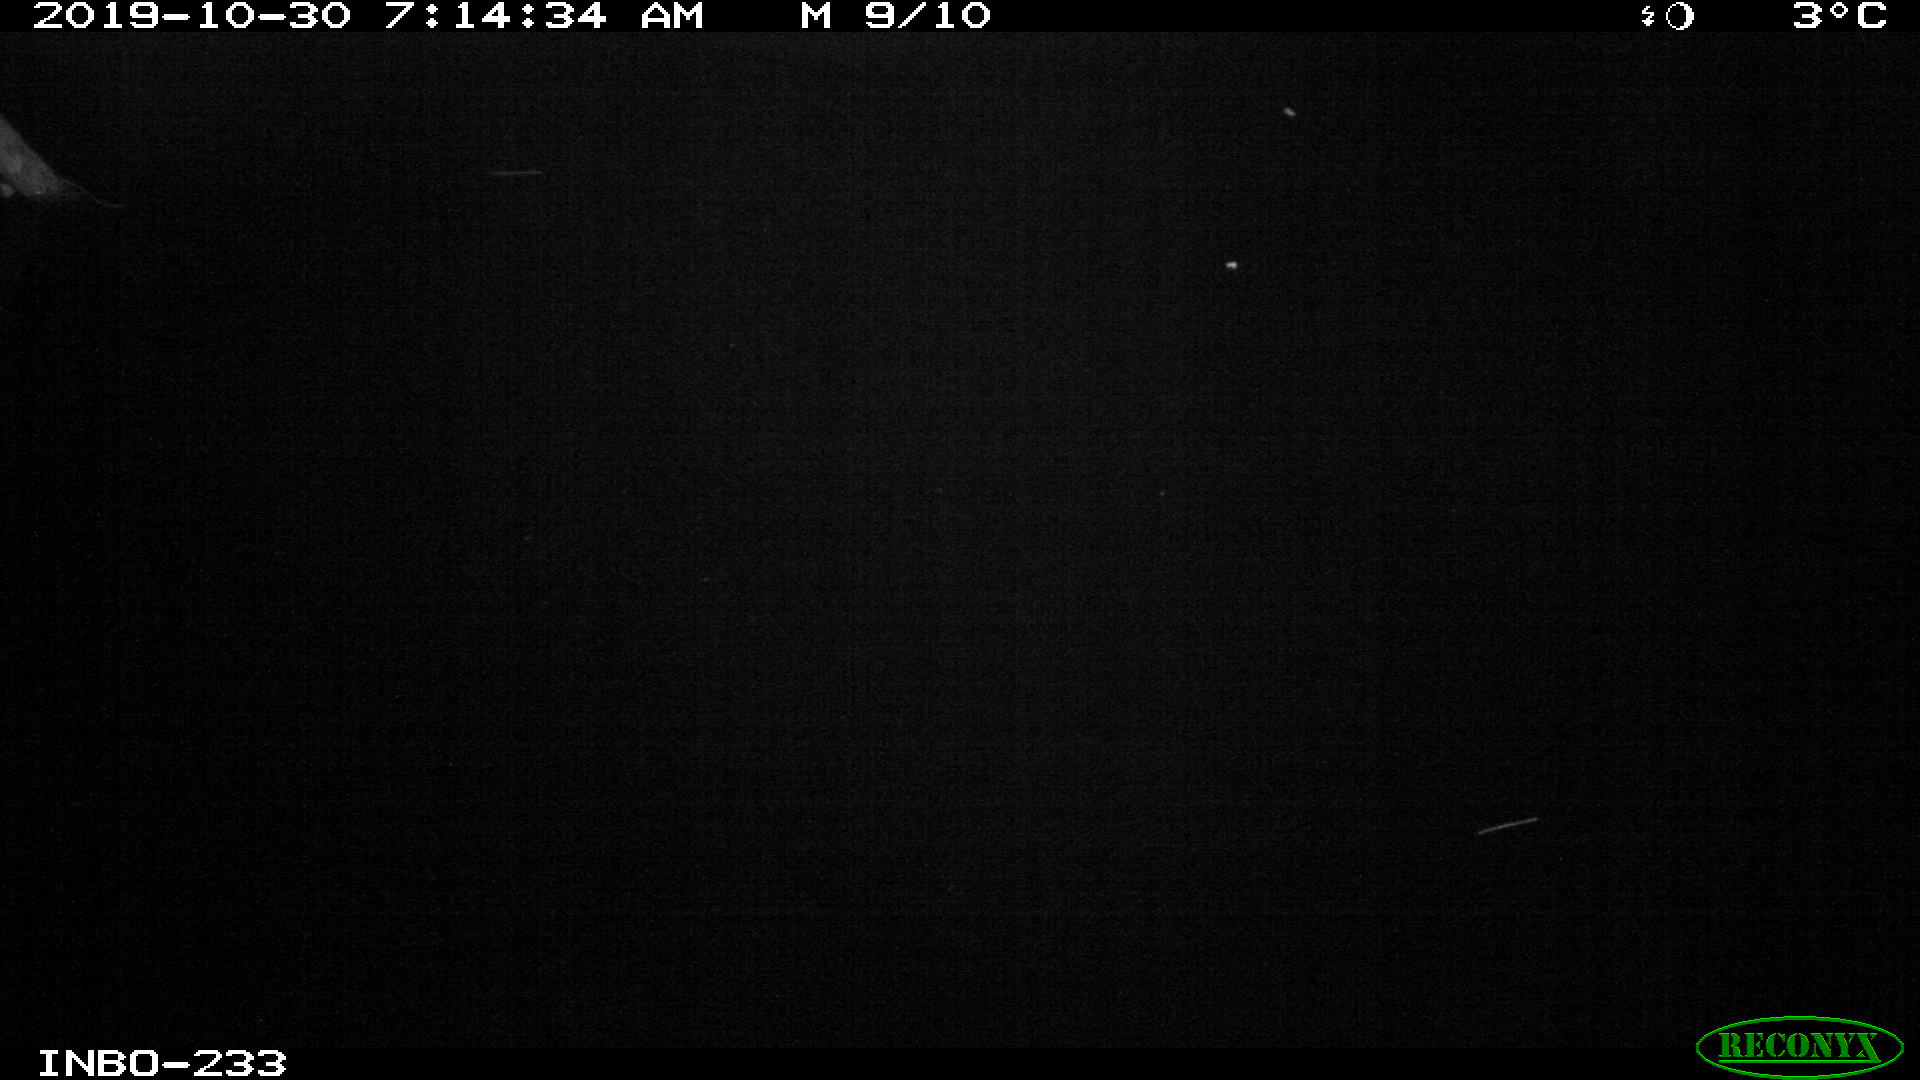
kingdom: Animalia
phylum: Chordata
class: Aves
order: Anseriformes
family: Anatidae
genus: Anas
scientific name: Anas platyrhynchos
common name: Mallard
